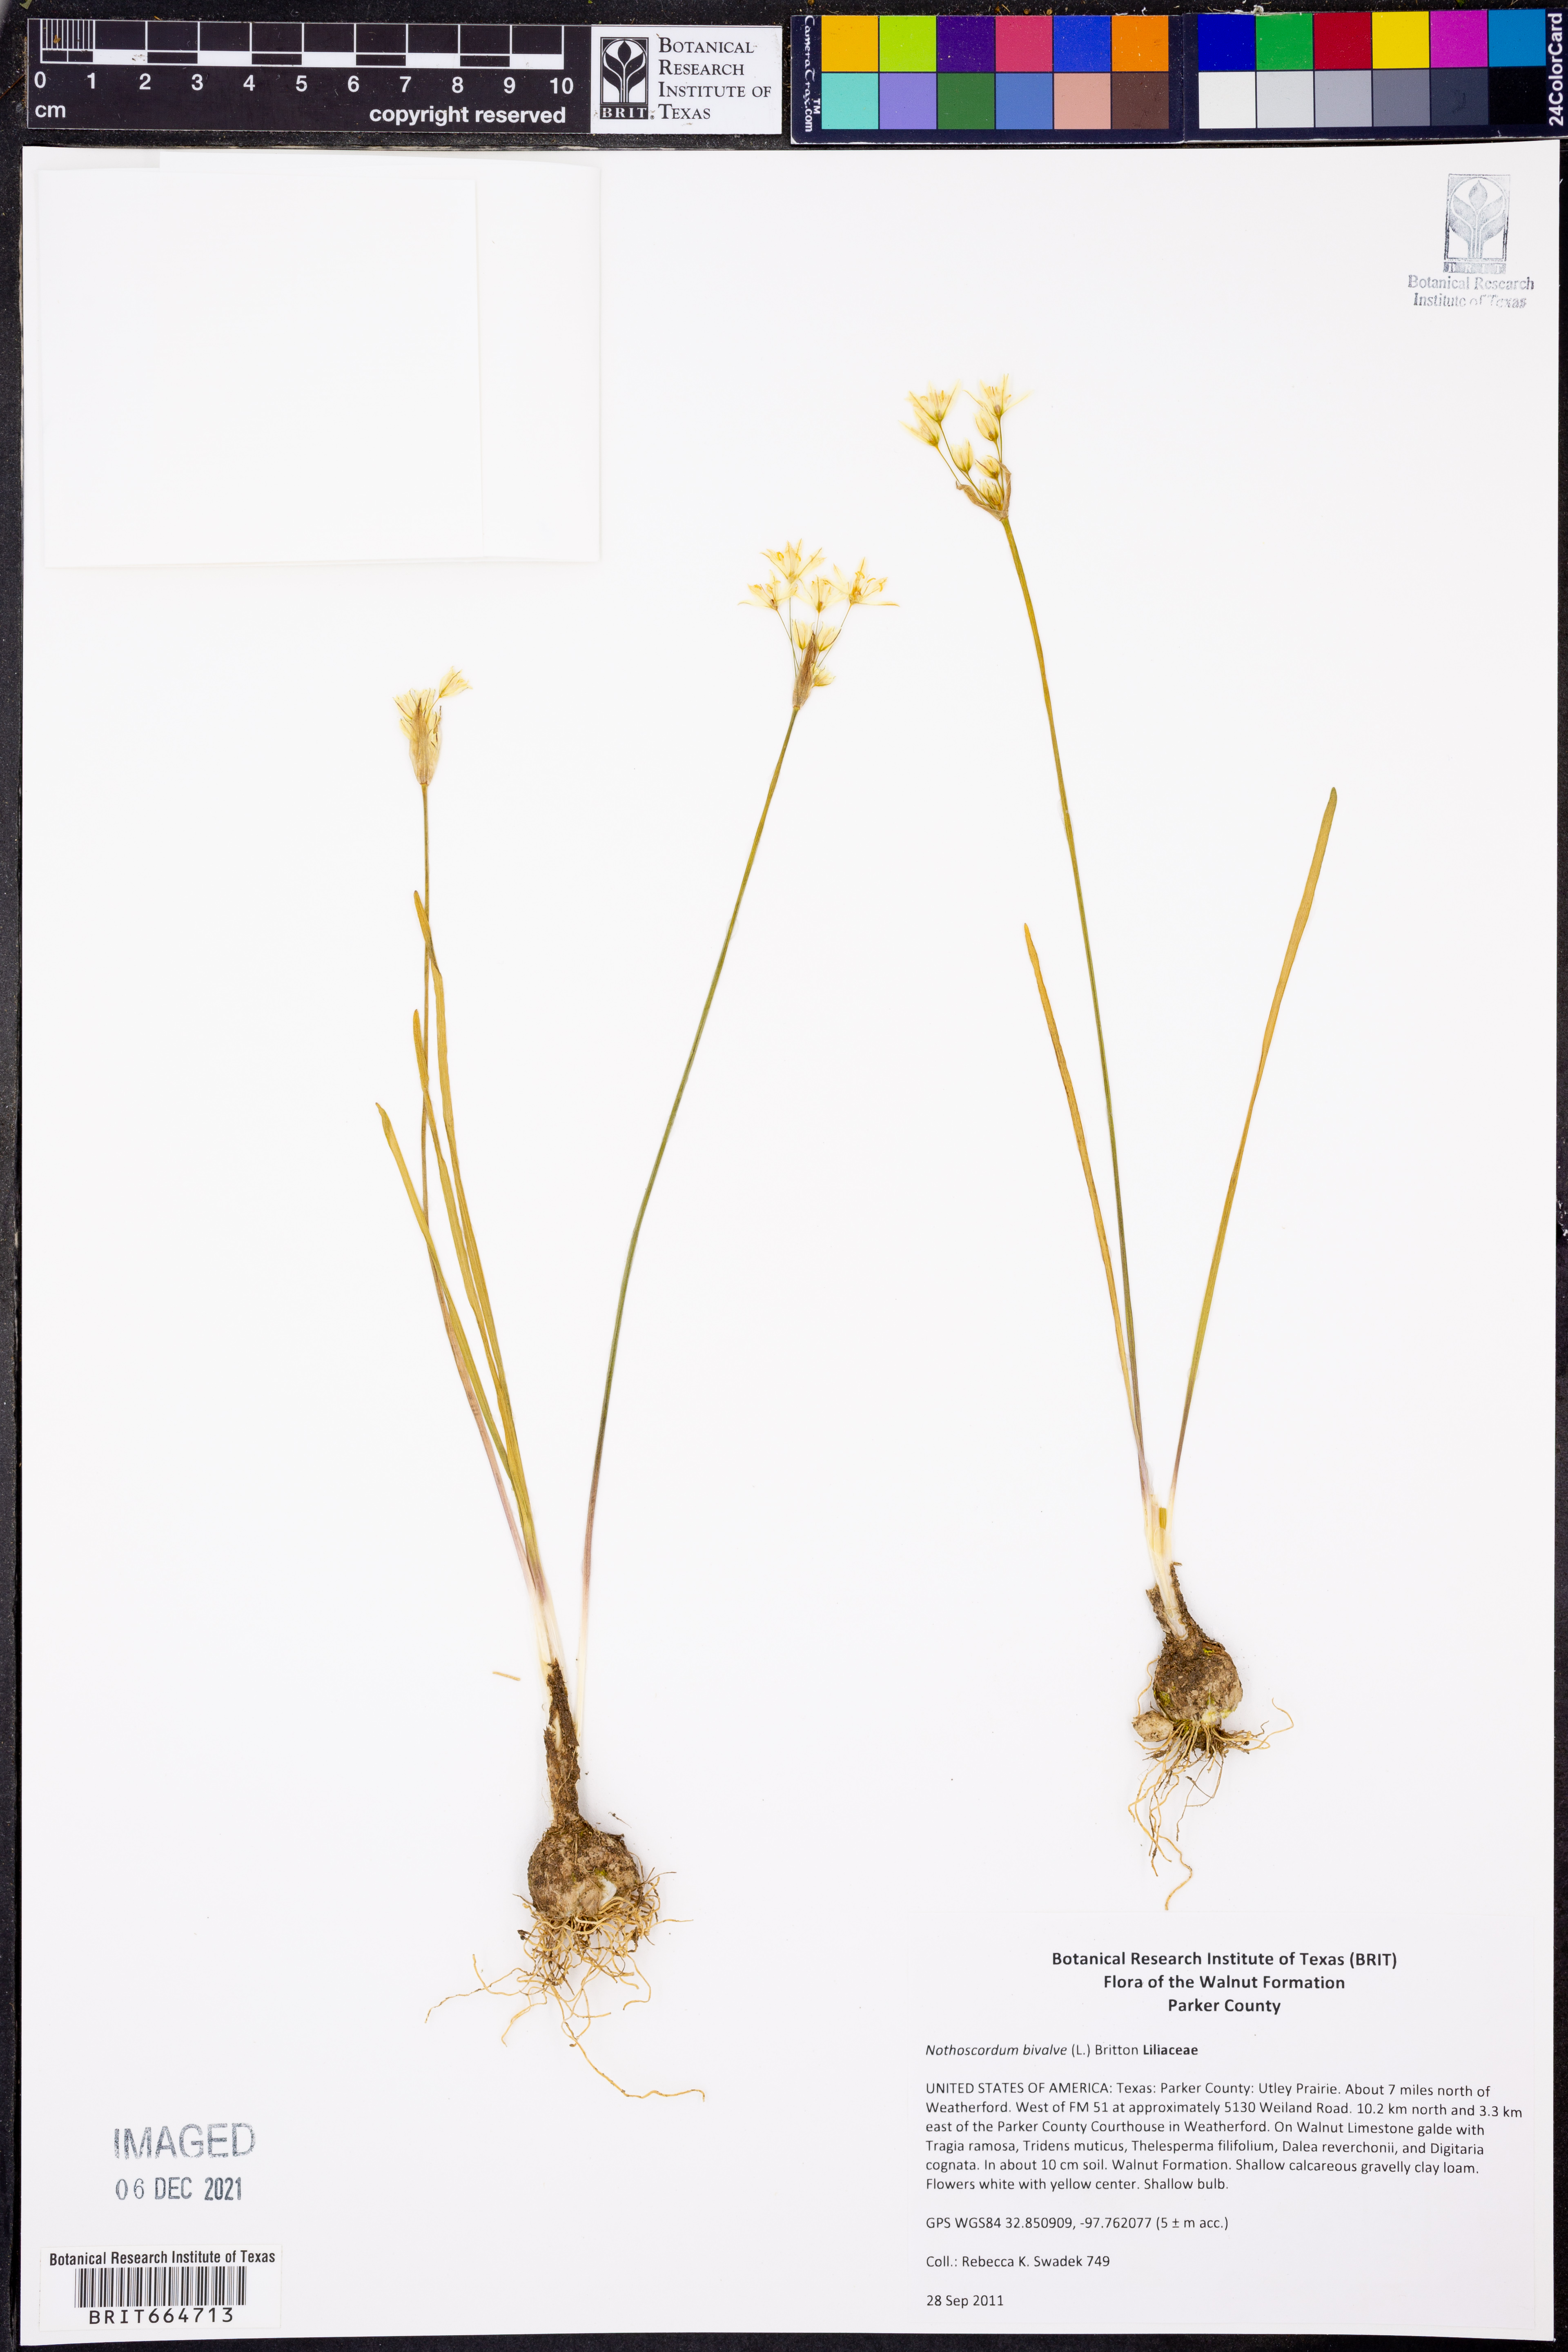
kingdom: Plantae
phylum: Tracheophyta
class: Liliopsida
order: Asparagales
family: Amaryllidaceae
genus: Nothoscordum
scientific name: Nothoscordum bivalve
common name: Crow-poison
